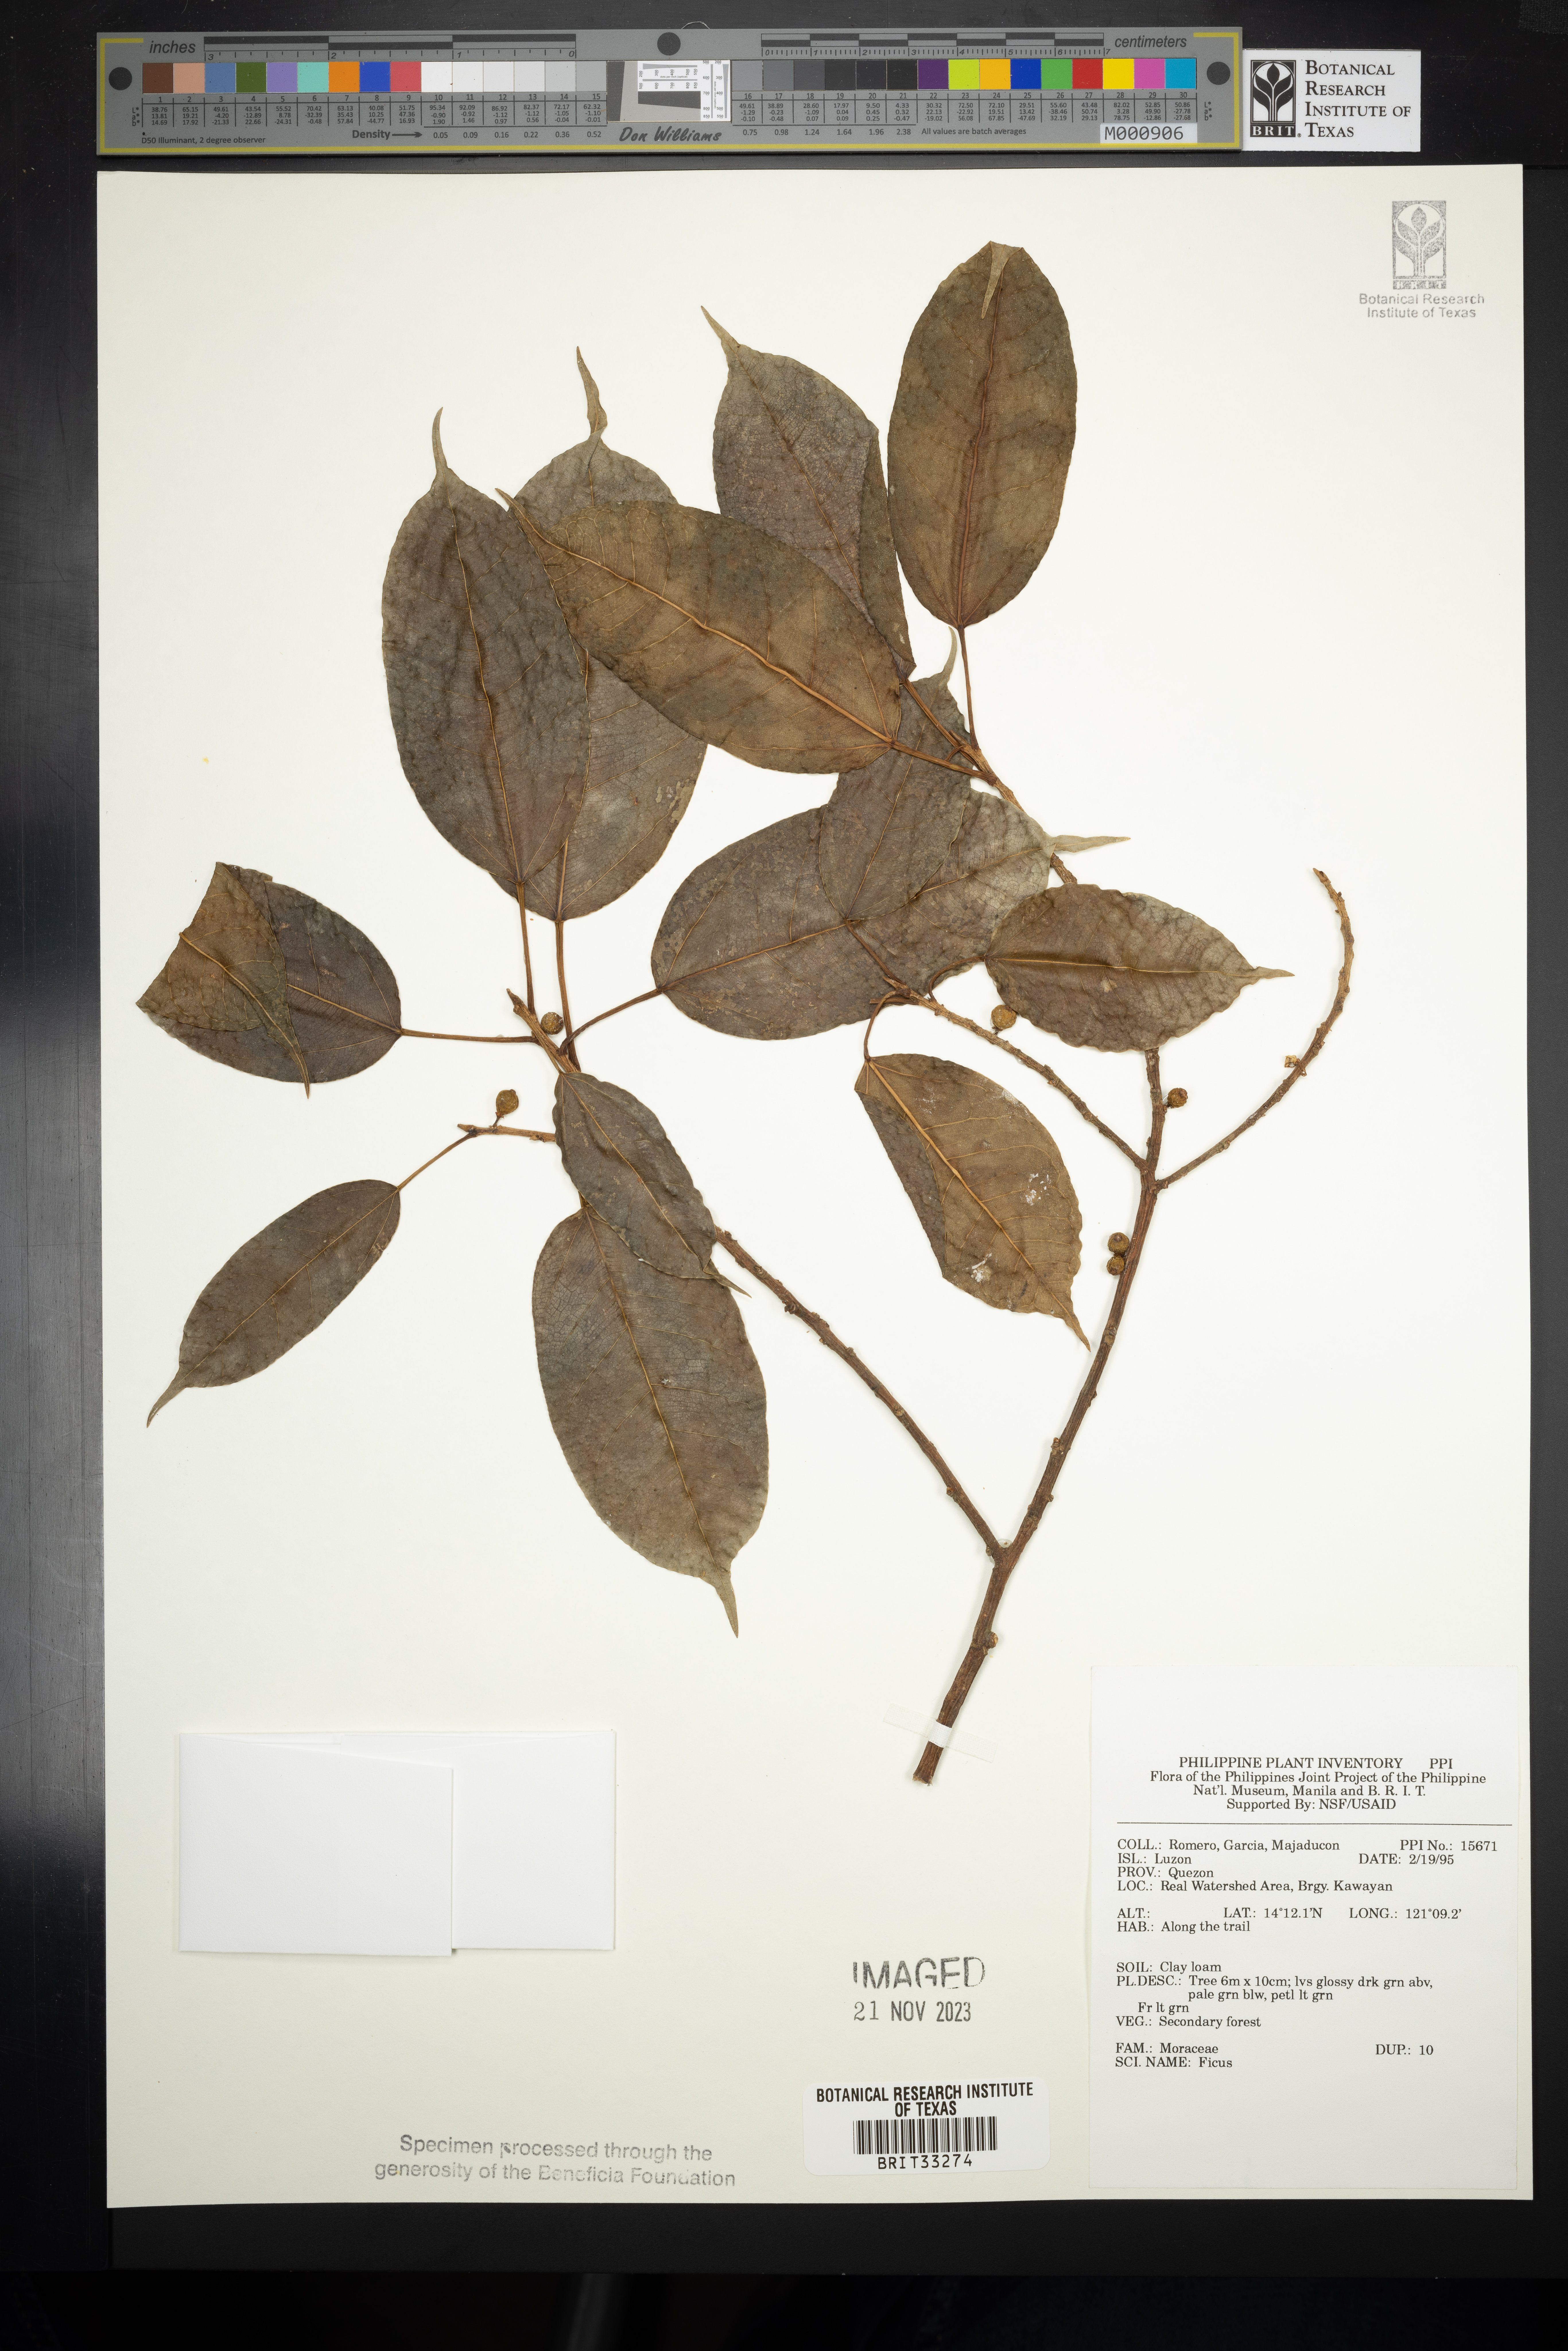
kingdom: Plantae
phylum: Tracheophyta
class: Magnoliopsida
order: Rosales
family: Moraceae
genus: Ficus
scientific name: Ficus
